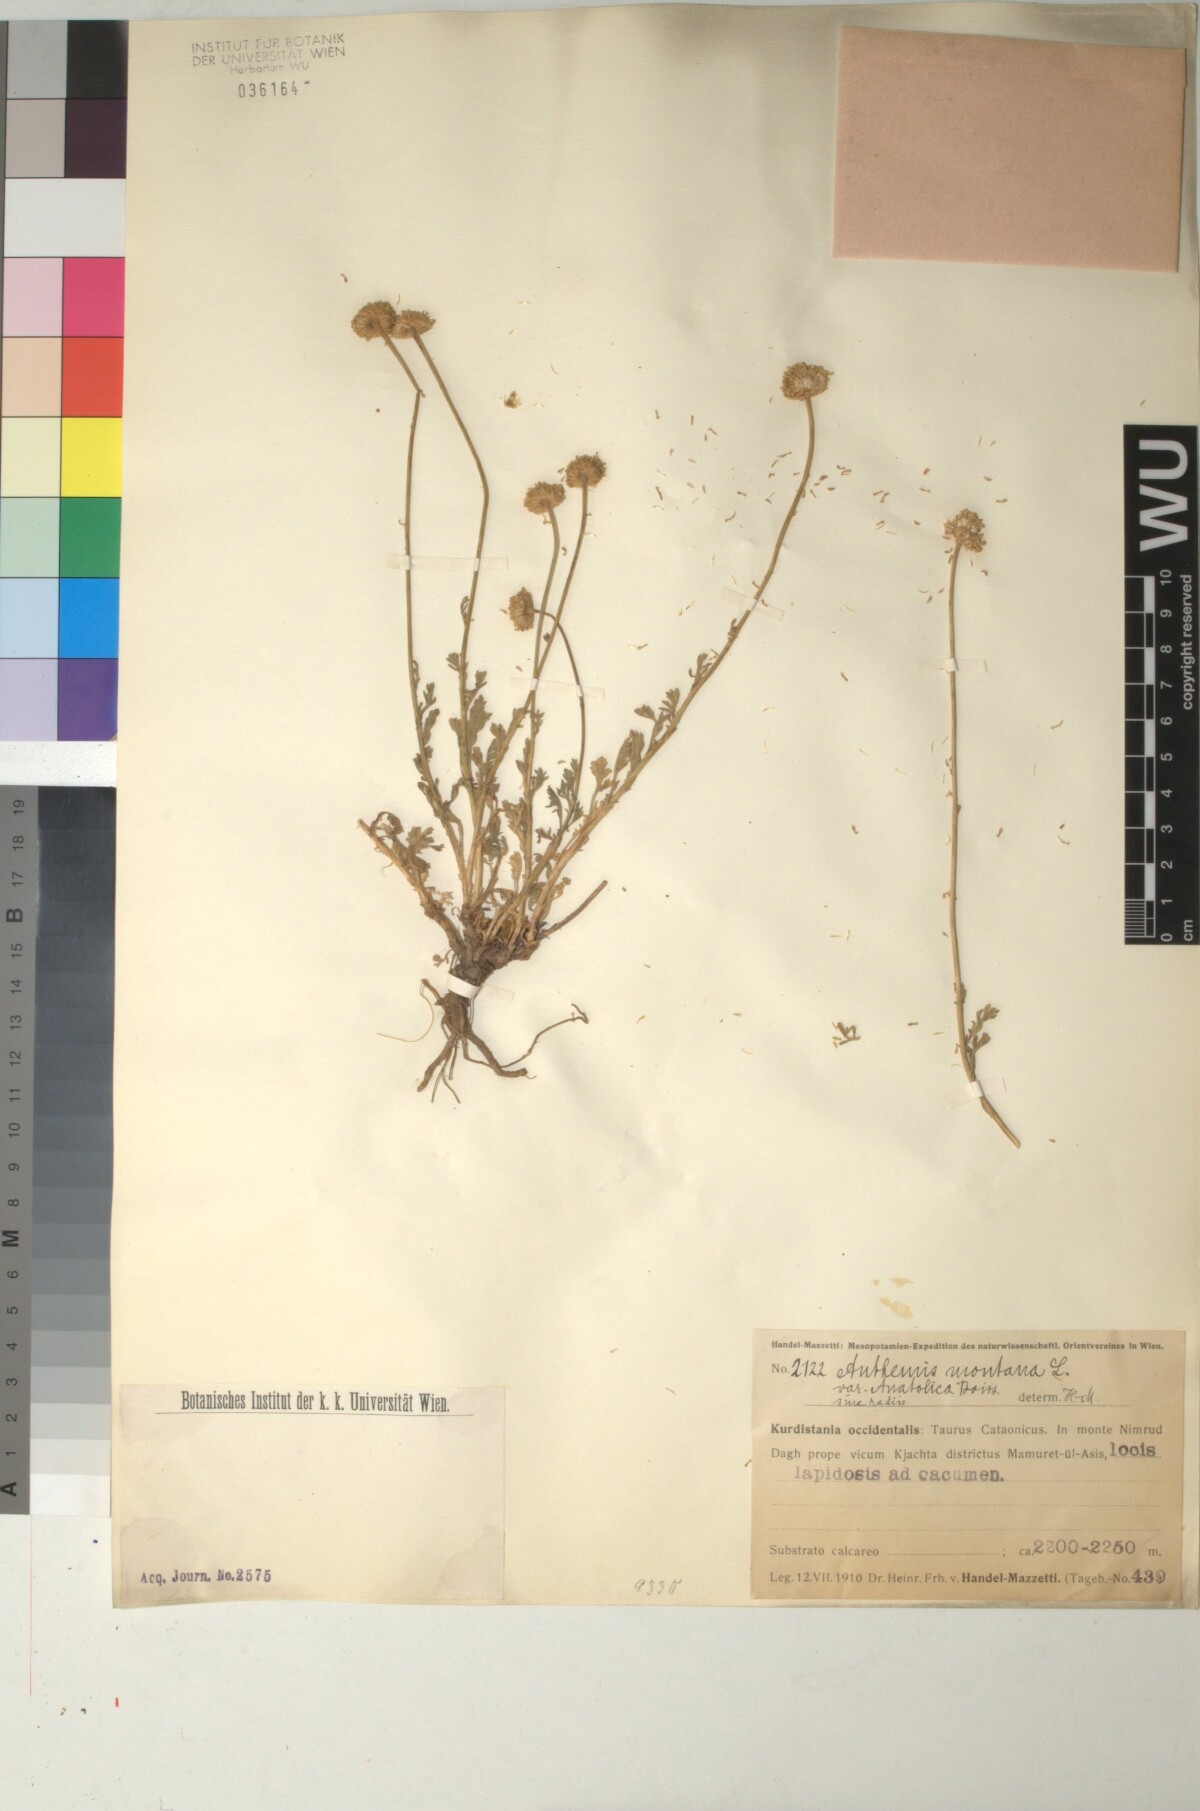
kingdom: Plantae
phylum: Tracheophyta
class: Magnoliopsida
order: Asterales
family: Asteraceae
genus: Anthemis
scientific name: Anthemis cretica
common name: Mountain dog-daisy
